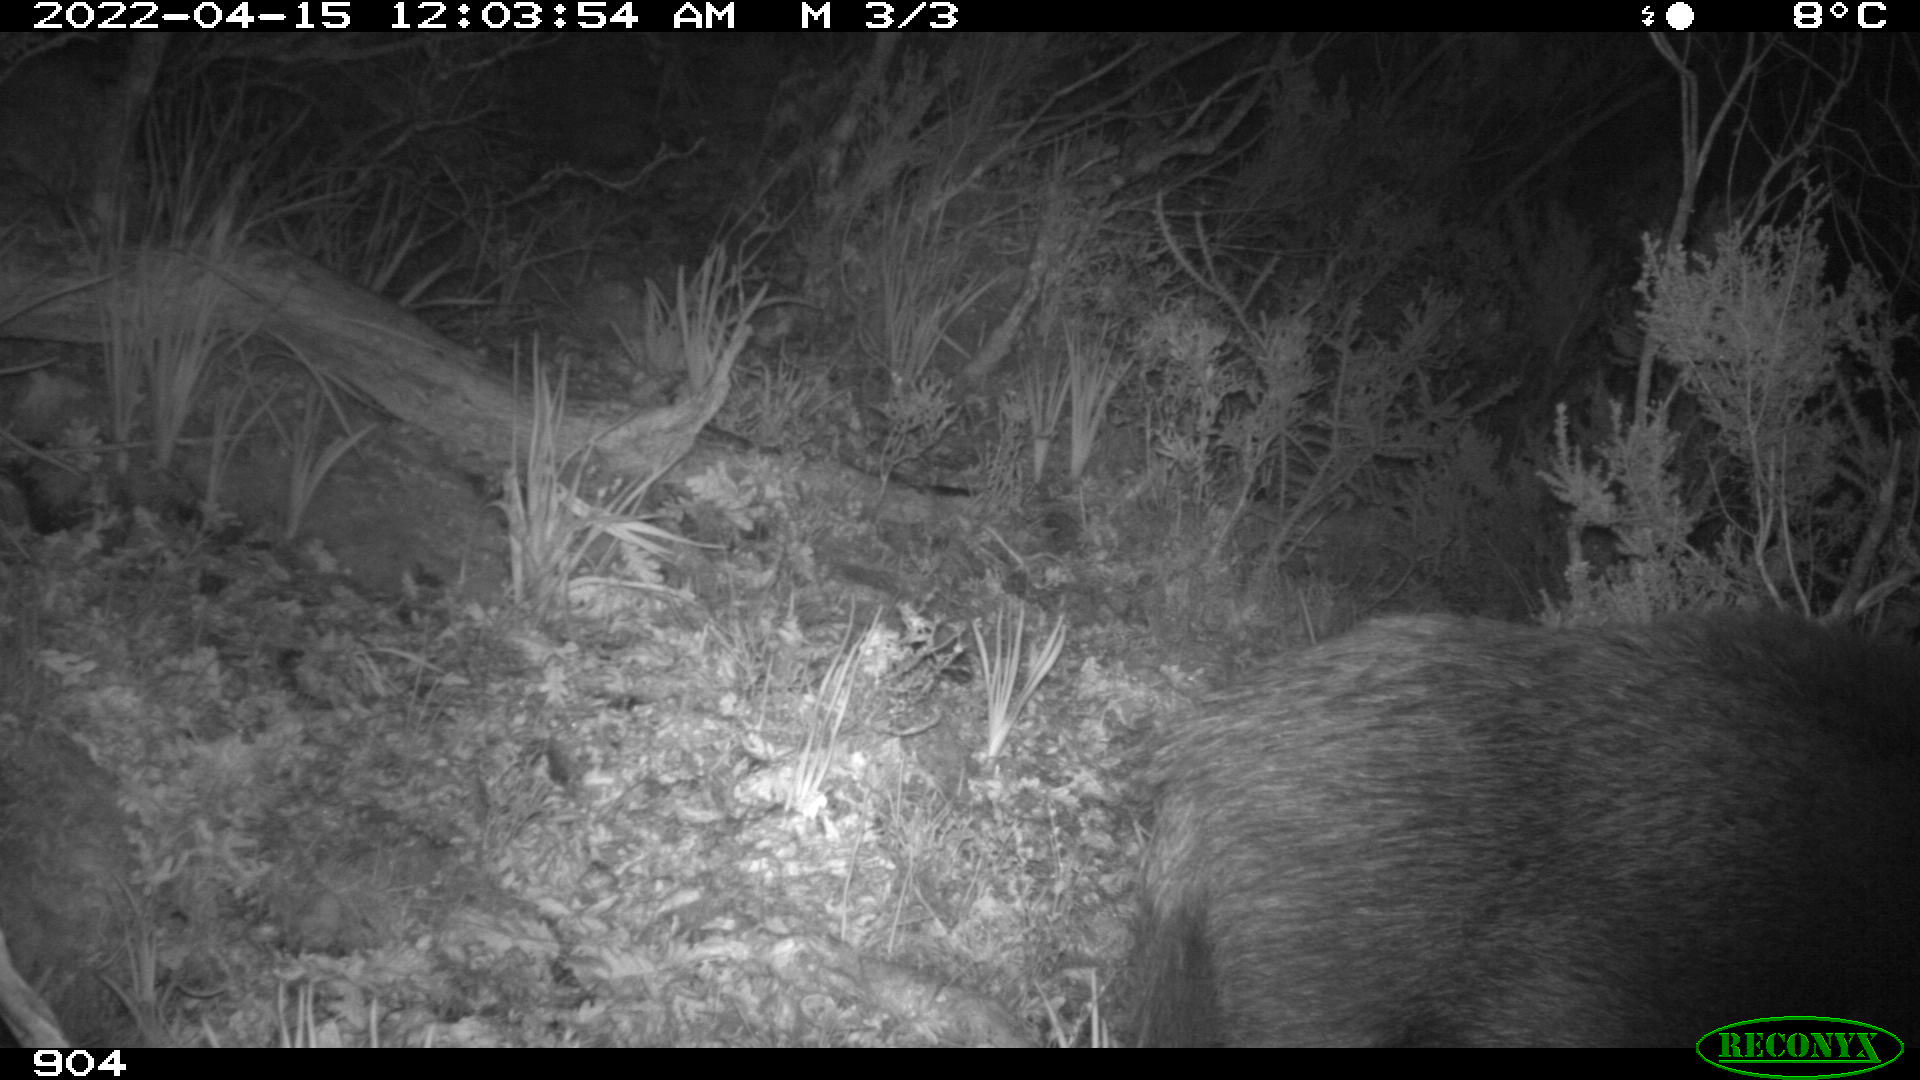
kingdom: Animalia
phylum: Chordata
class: Mammalia
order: Artiodactyla
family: Suidae
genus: Sus
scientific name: Sus scrofa
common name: Wild boar
